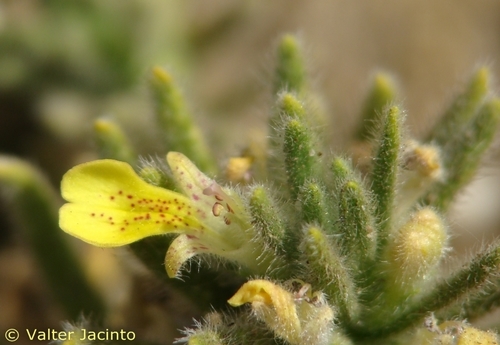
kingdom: Plantae
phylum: Tracheophyta
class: Magnoliopsida
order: Lamiales
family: Lamiaceae
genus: Ajuga
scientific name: Ajuga iva
